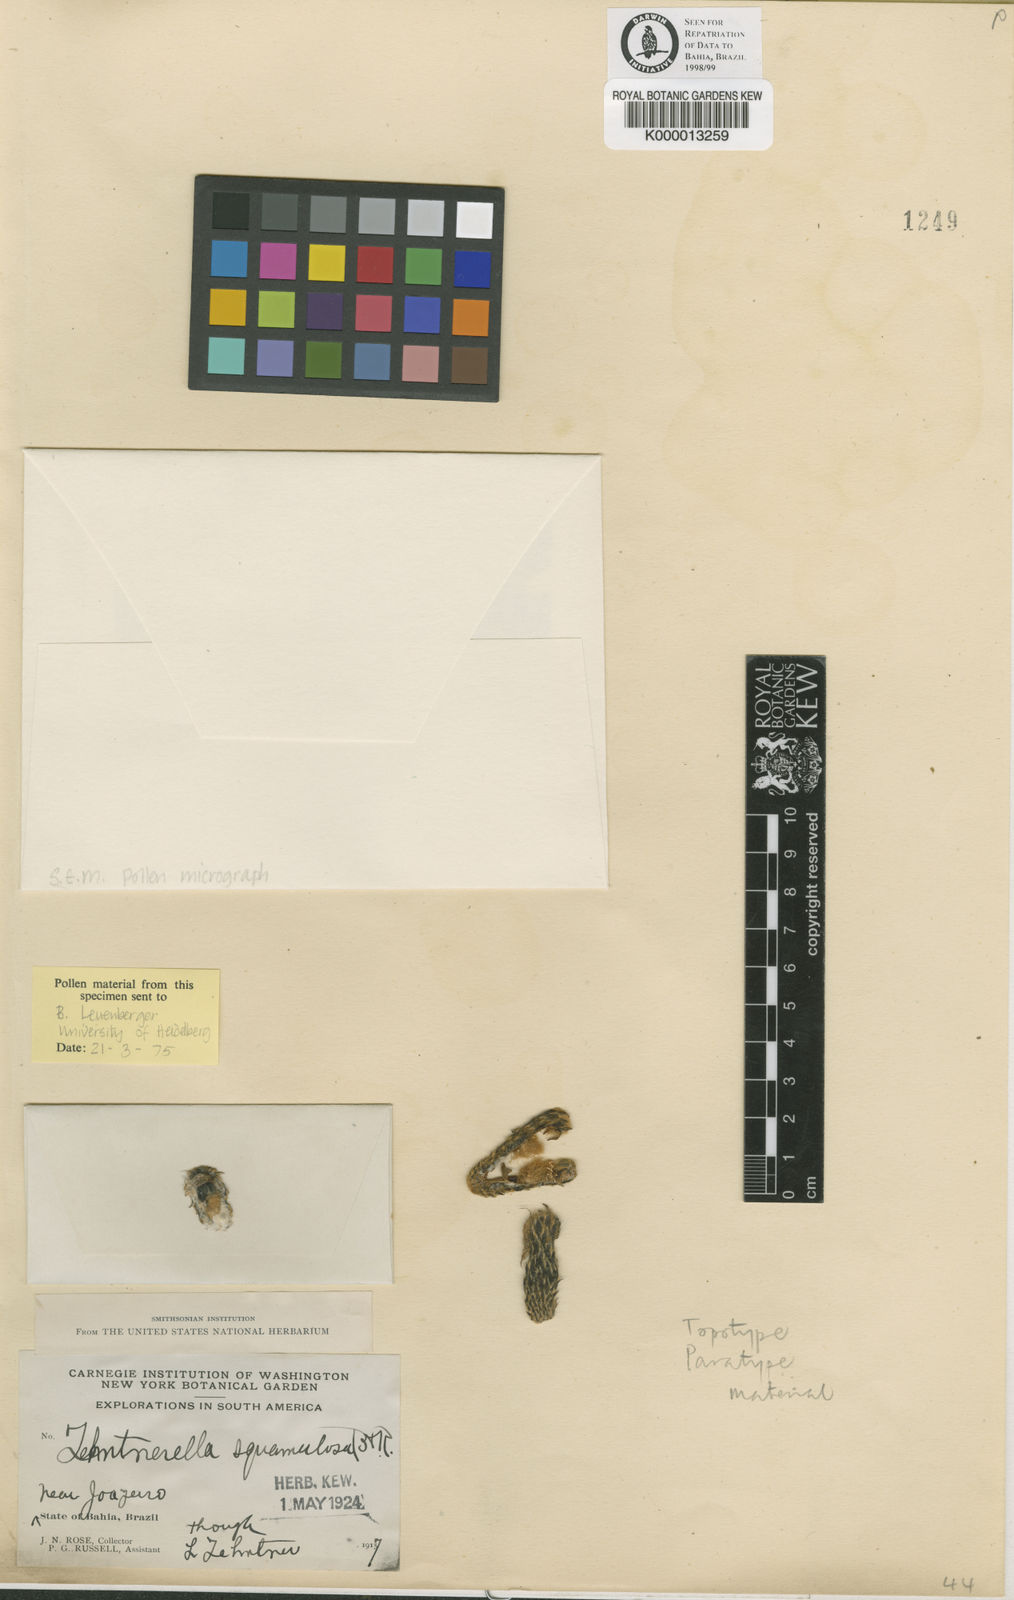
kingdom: Plantae
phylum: Tracheophyta
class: Magnoliopsida
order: Caryophyllales
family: Cactaceae
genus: Facheiroa
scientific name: Facheiroa squamosa
